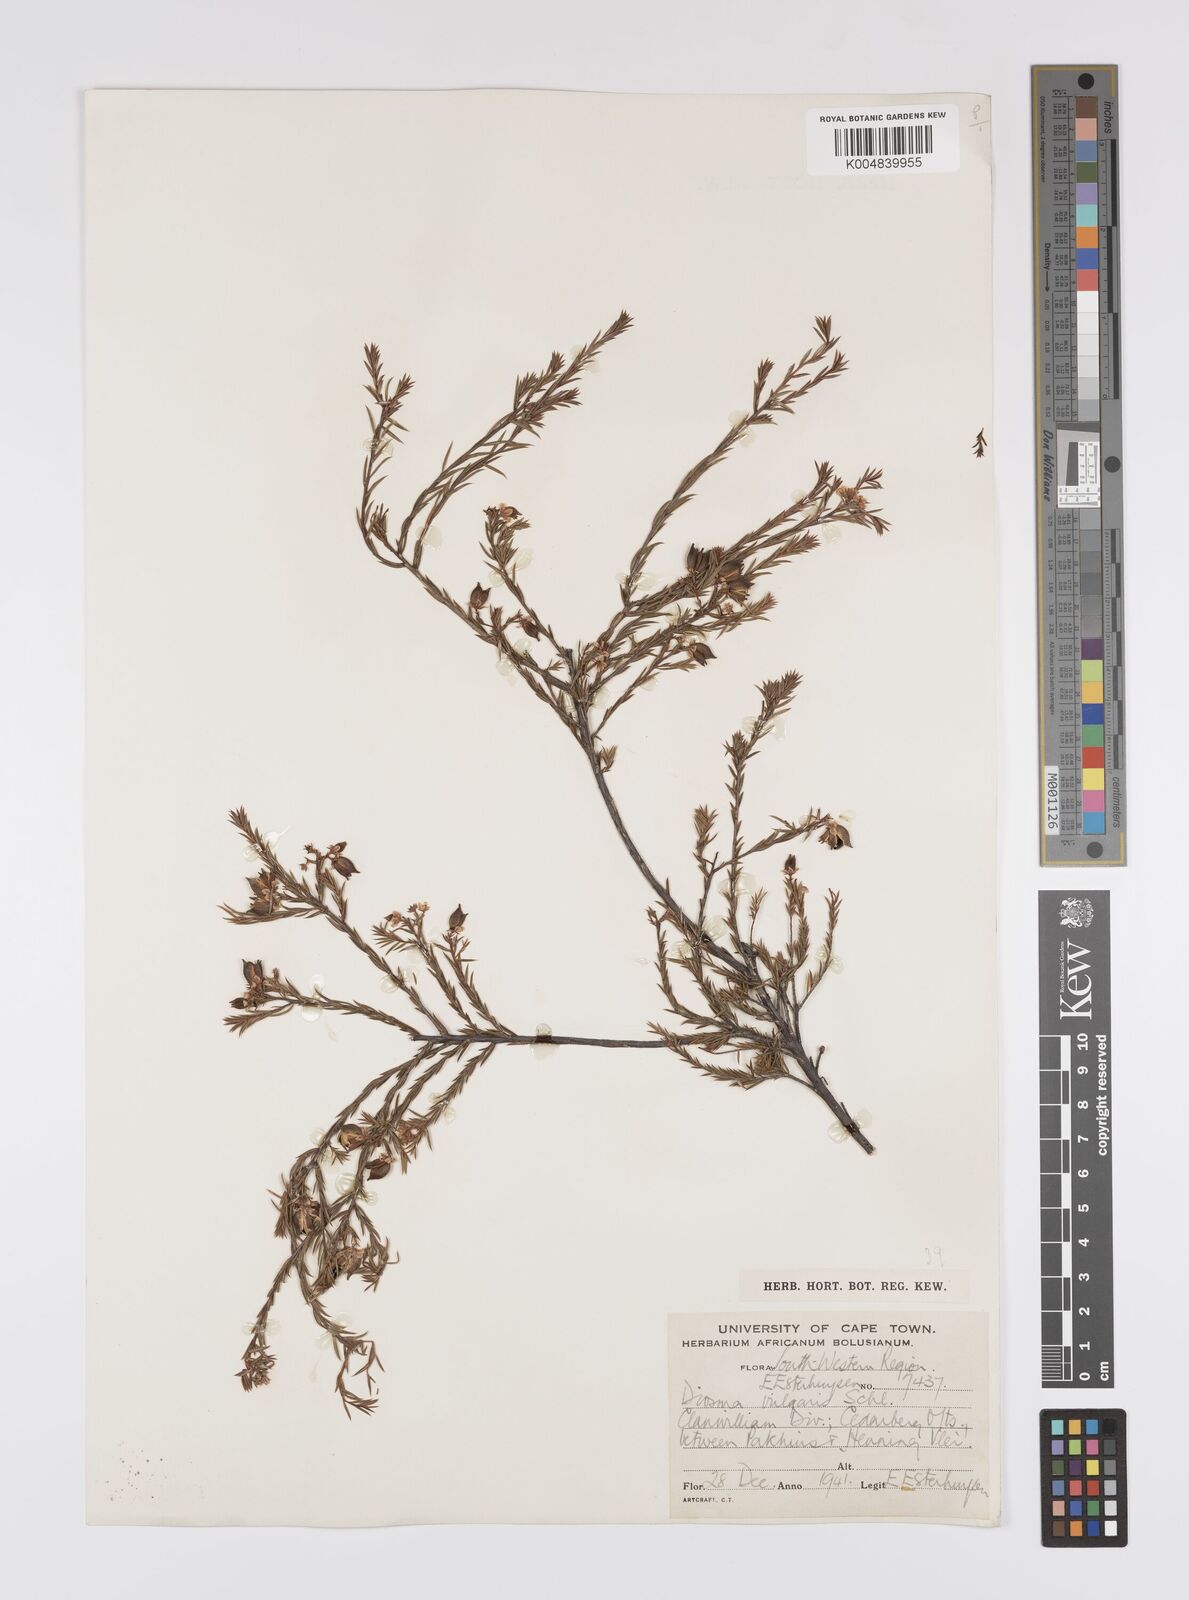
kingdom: Plantae
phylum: Tracheophyta
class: Magnoliopsida
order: Sapindales
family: Rutaceae
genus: Diosma
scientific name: Diosma acmaeophylla
